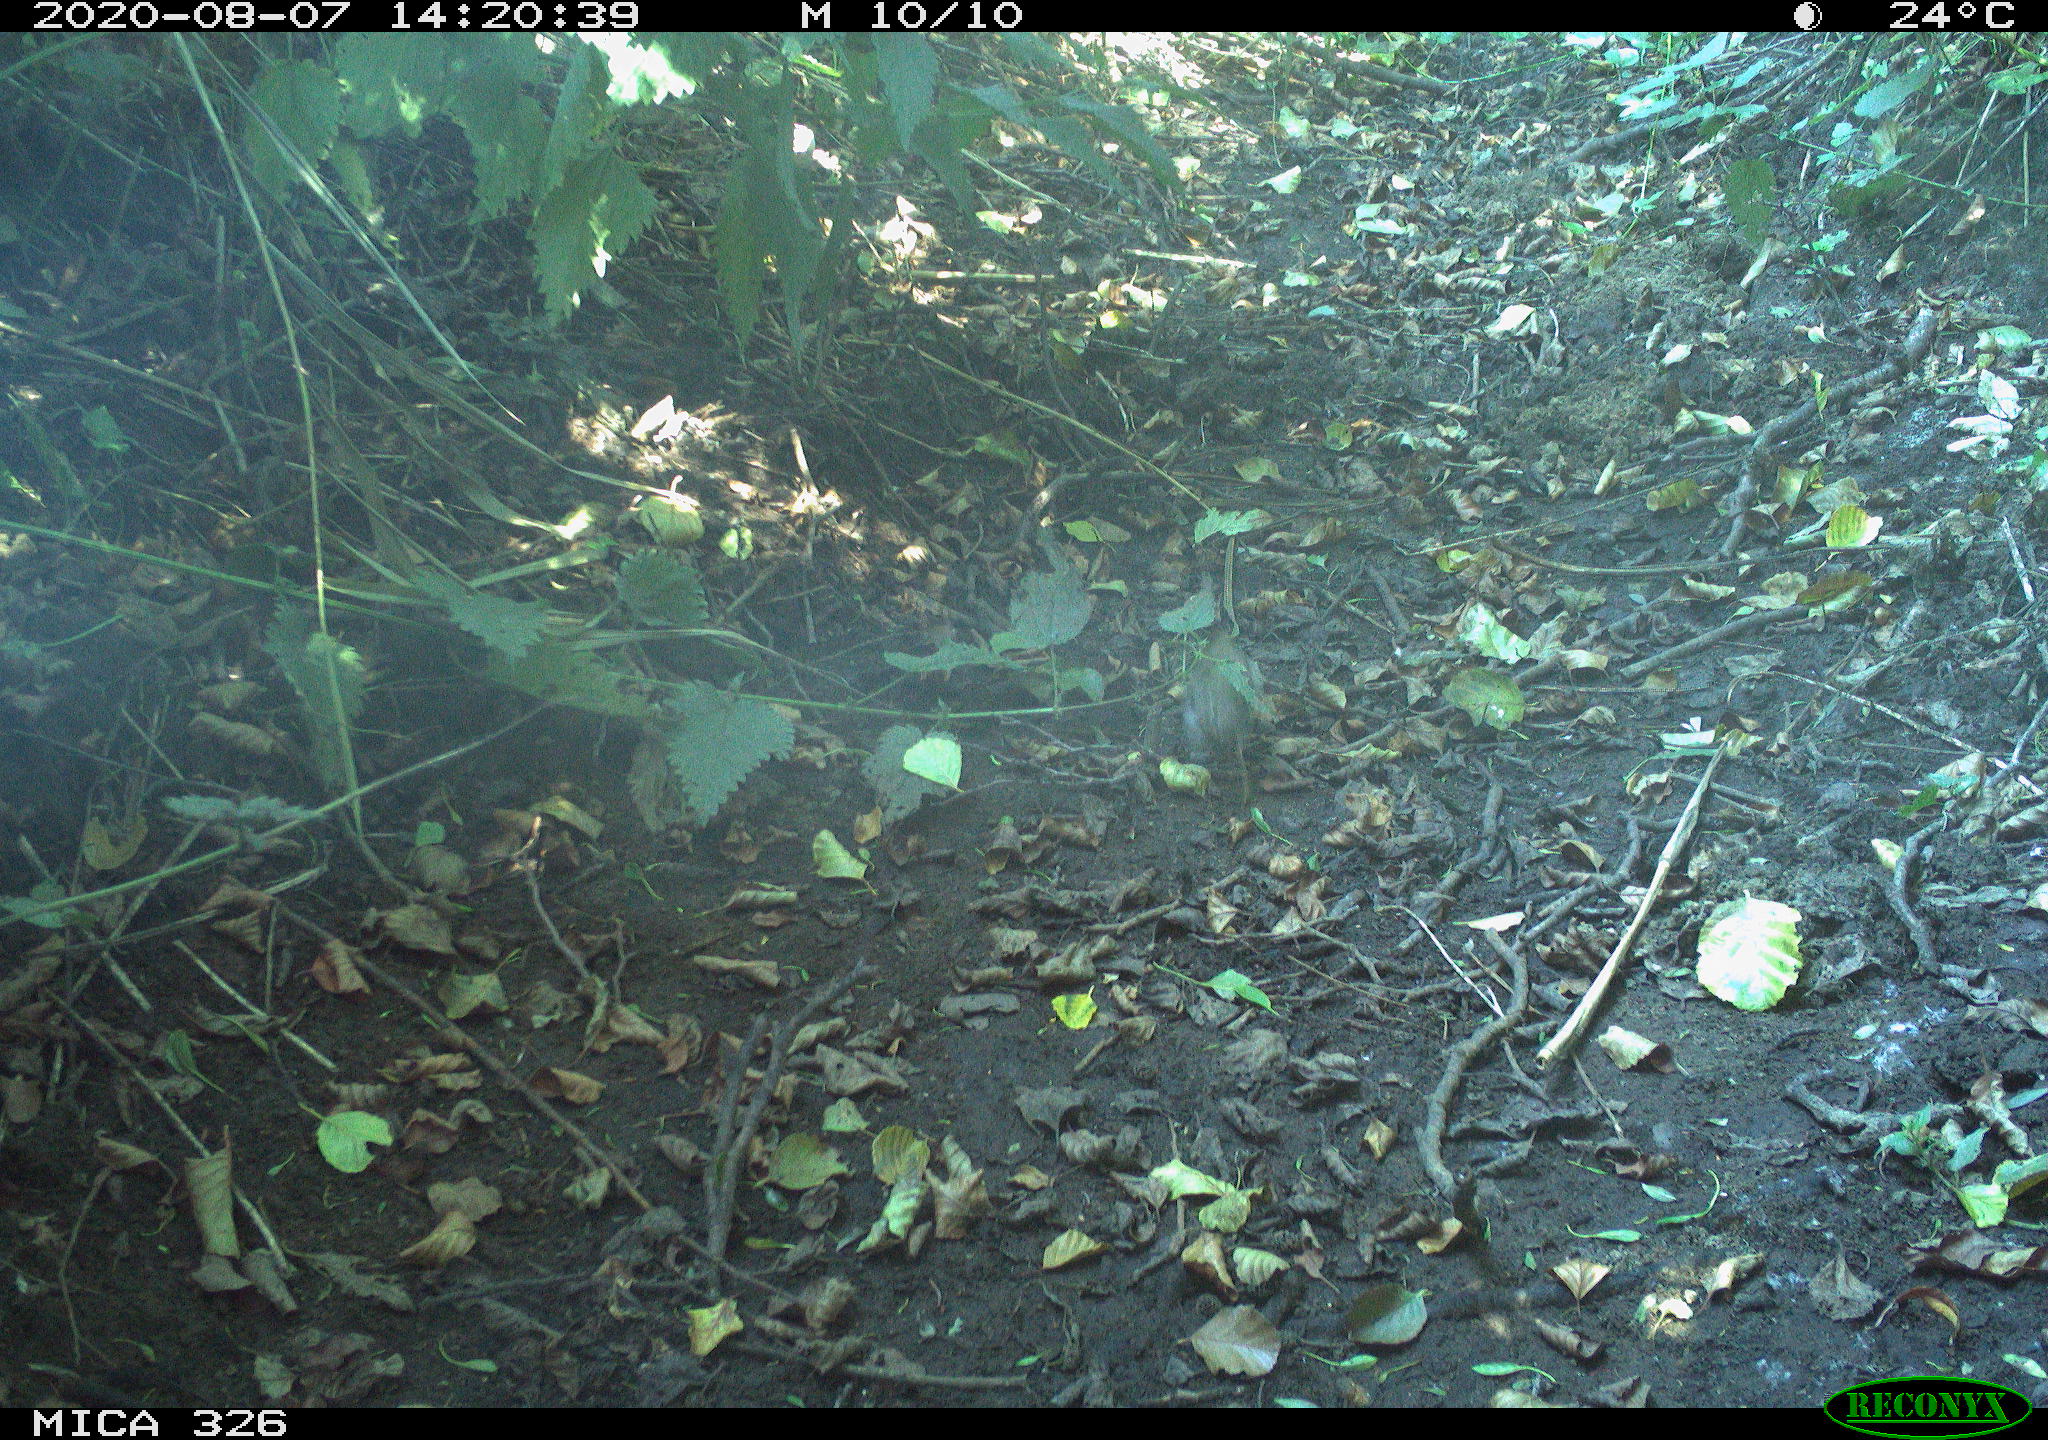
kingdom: Animalia
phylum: Chordata
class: Aves
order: Passeriformes
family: Muscicapidae
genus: Erithacus
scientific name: Erithacus rubecula
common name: European robin
